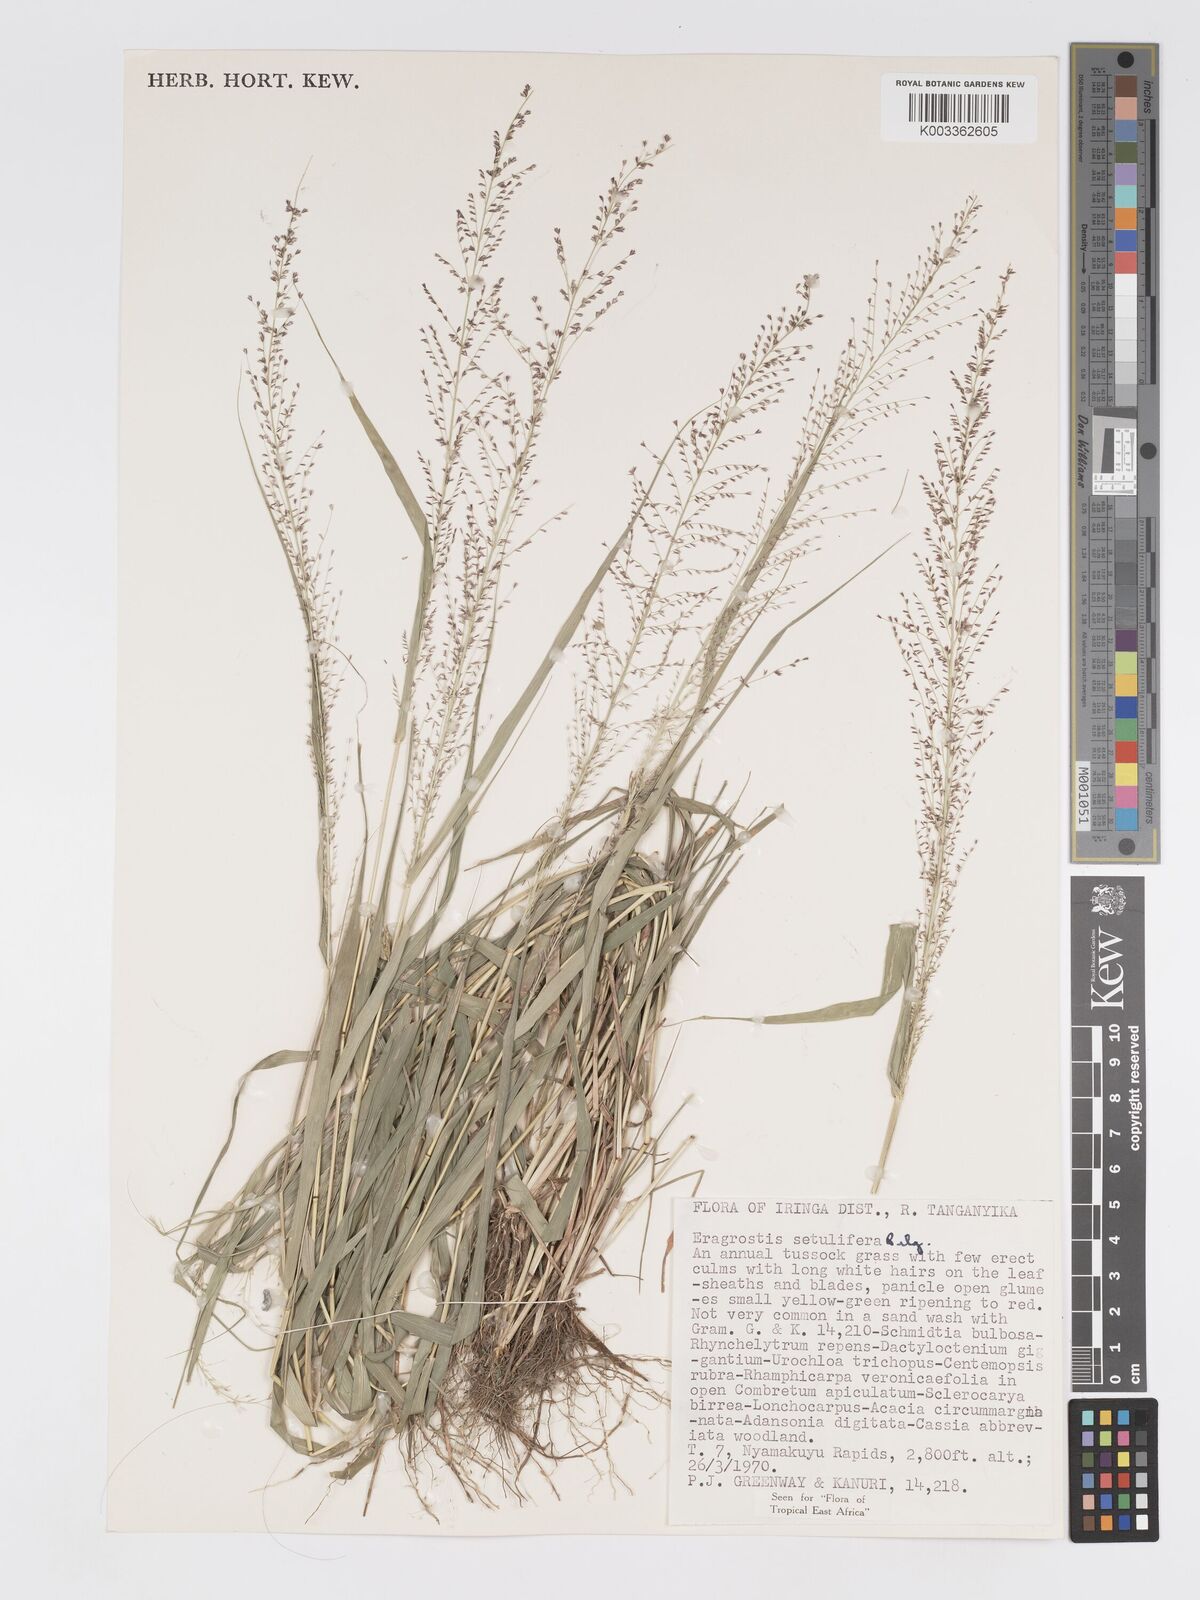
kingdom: Plantae
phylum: Tracheophyta
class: Liliopsida
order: Poales
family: Poaceae
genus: Eragrostis
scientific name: Eragrostis setulifera
